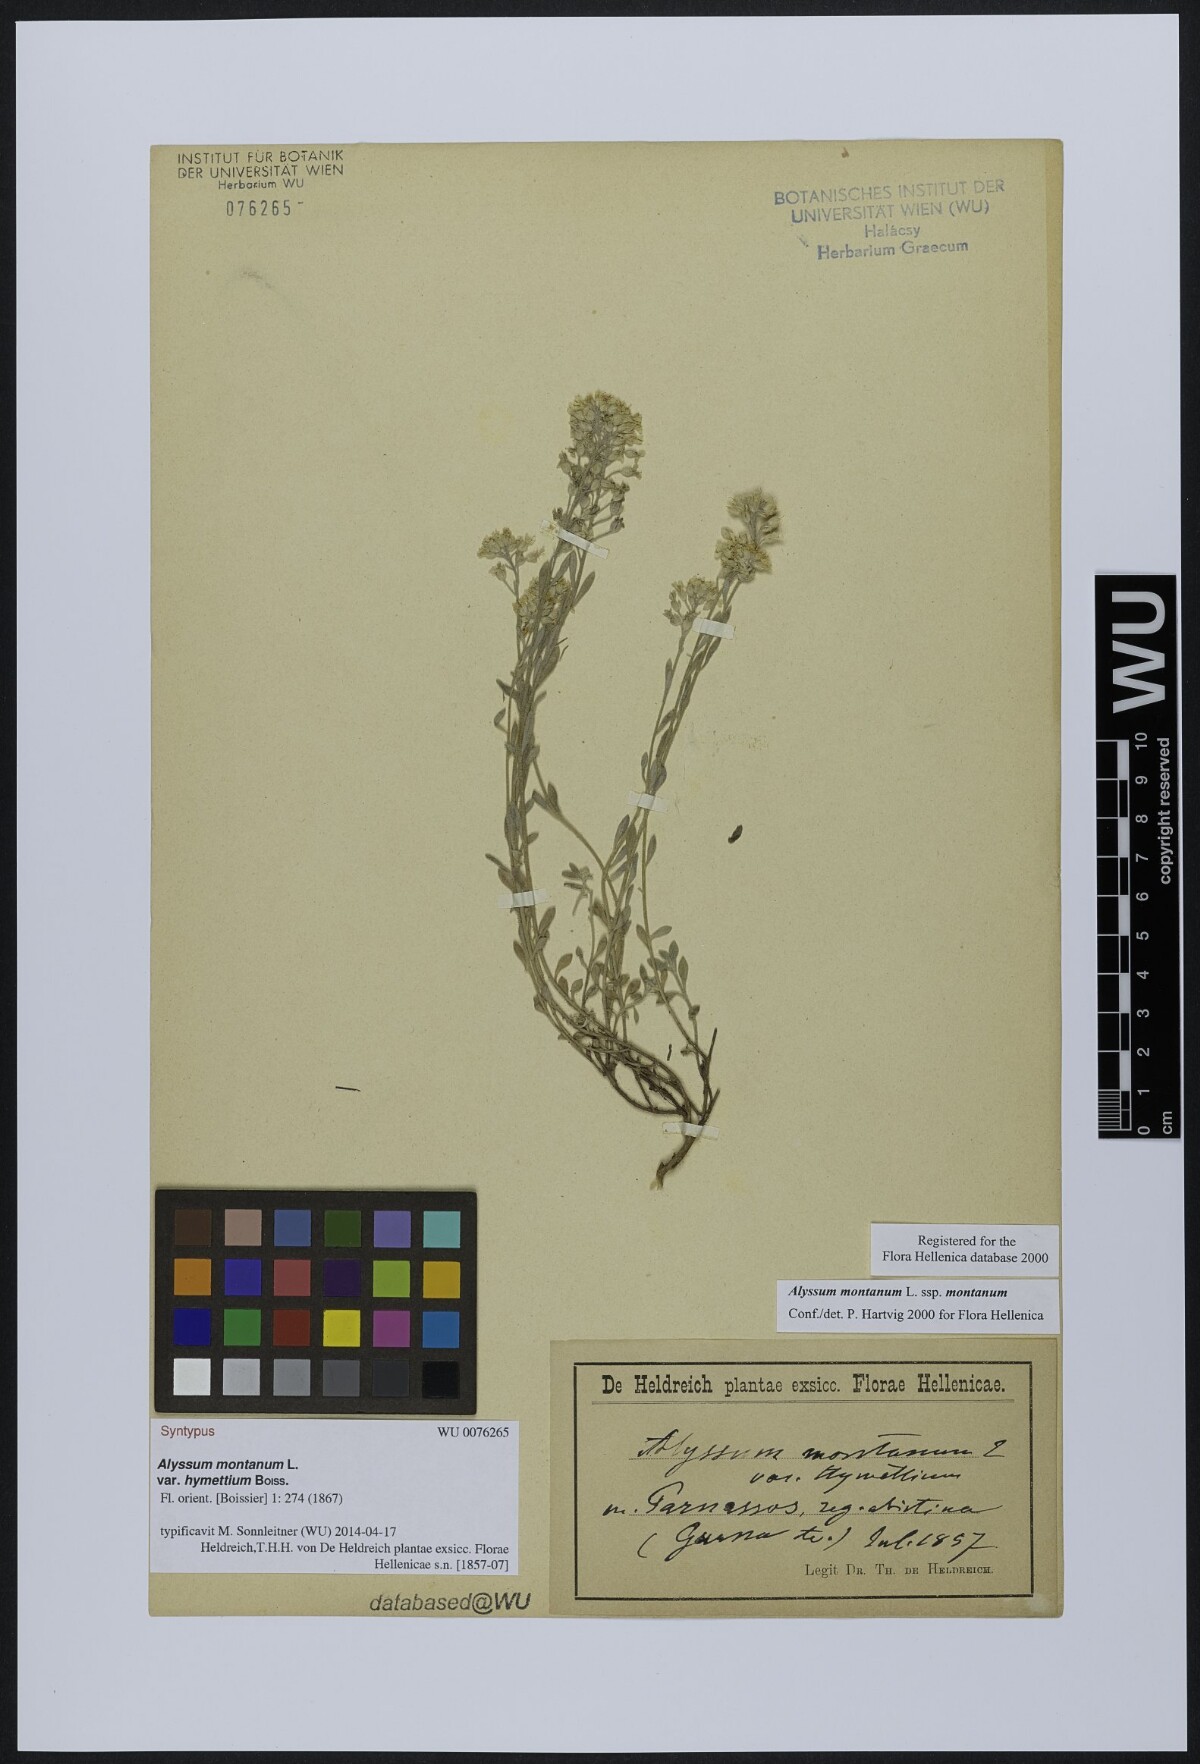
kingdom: Plantae
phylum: Tracheophyta
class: Magnoliopsida
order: Brassicales
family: Brassicaceae
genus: Alyssum
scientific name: Alyssum montanum
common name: Mountain alison
